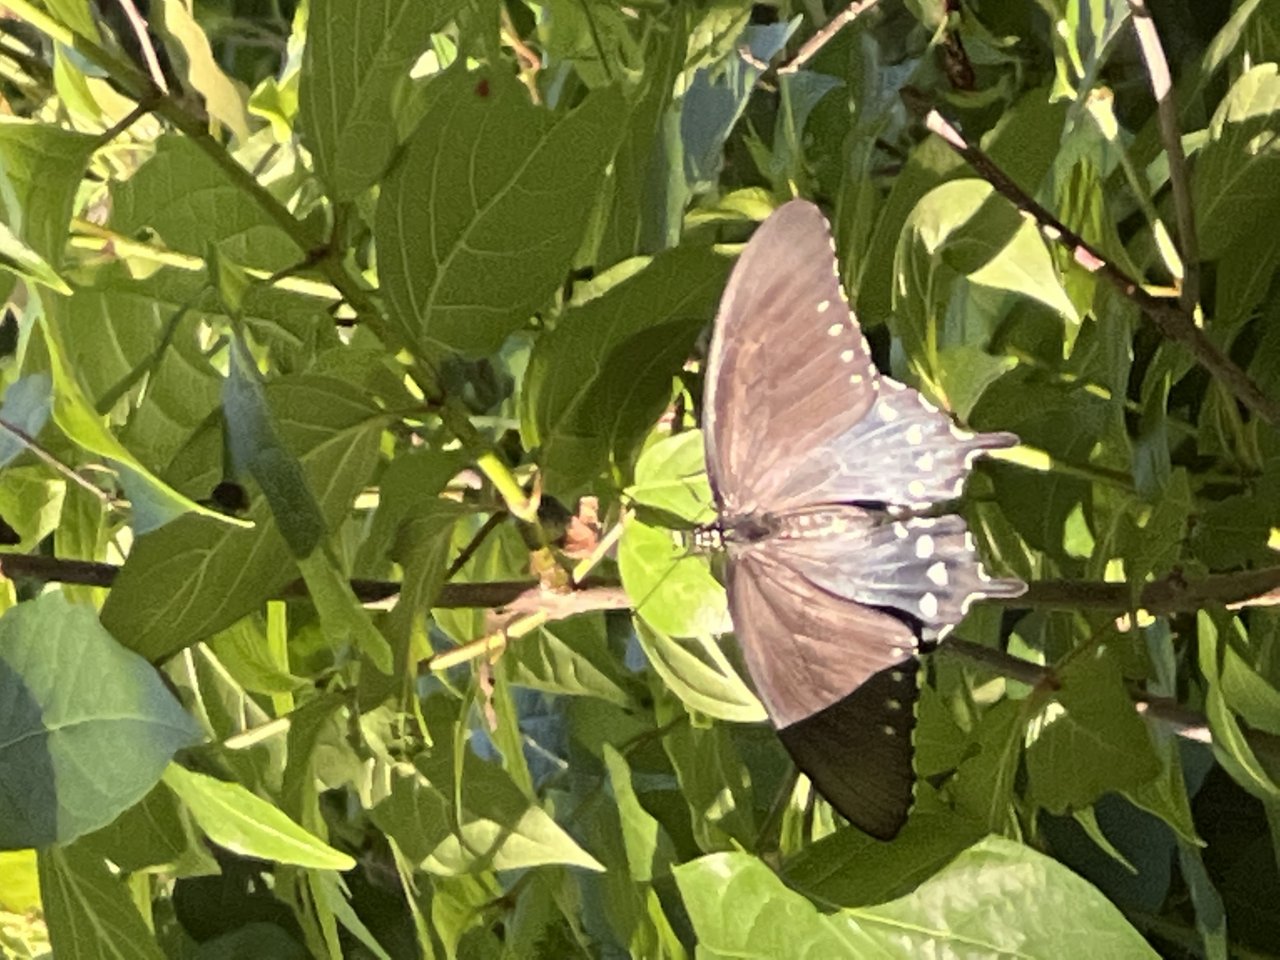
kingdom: Animalia
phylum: Arthropoda
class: Insecta
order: Lepidoptera
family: Papilionidae
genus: Battus
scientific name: Battus philenor
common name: Pipevine Swallowtail
